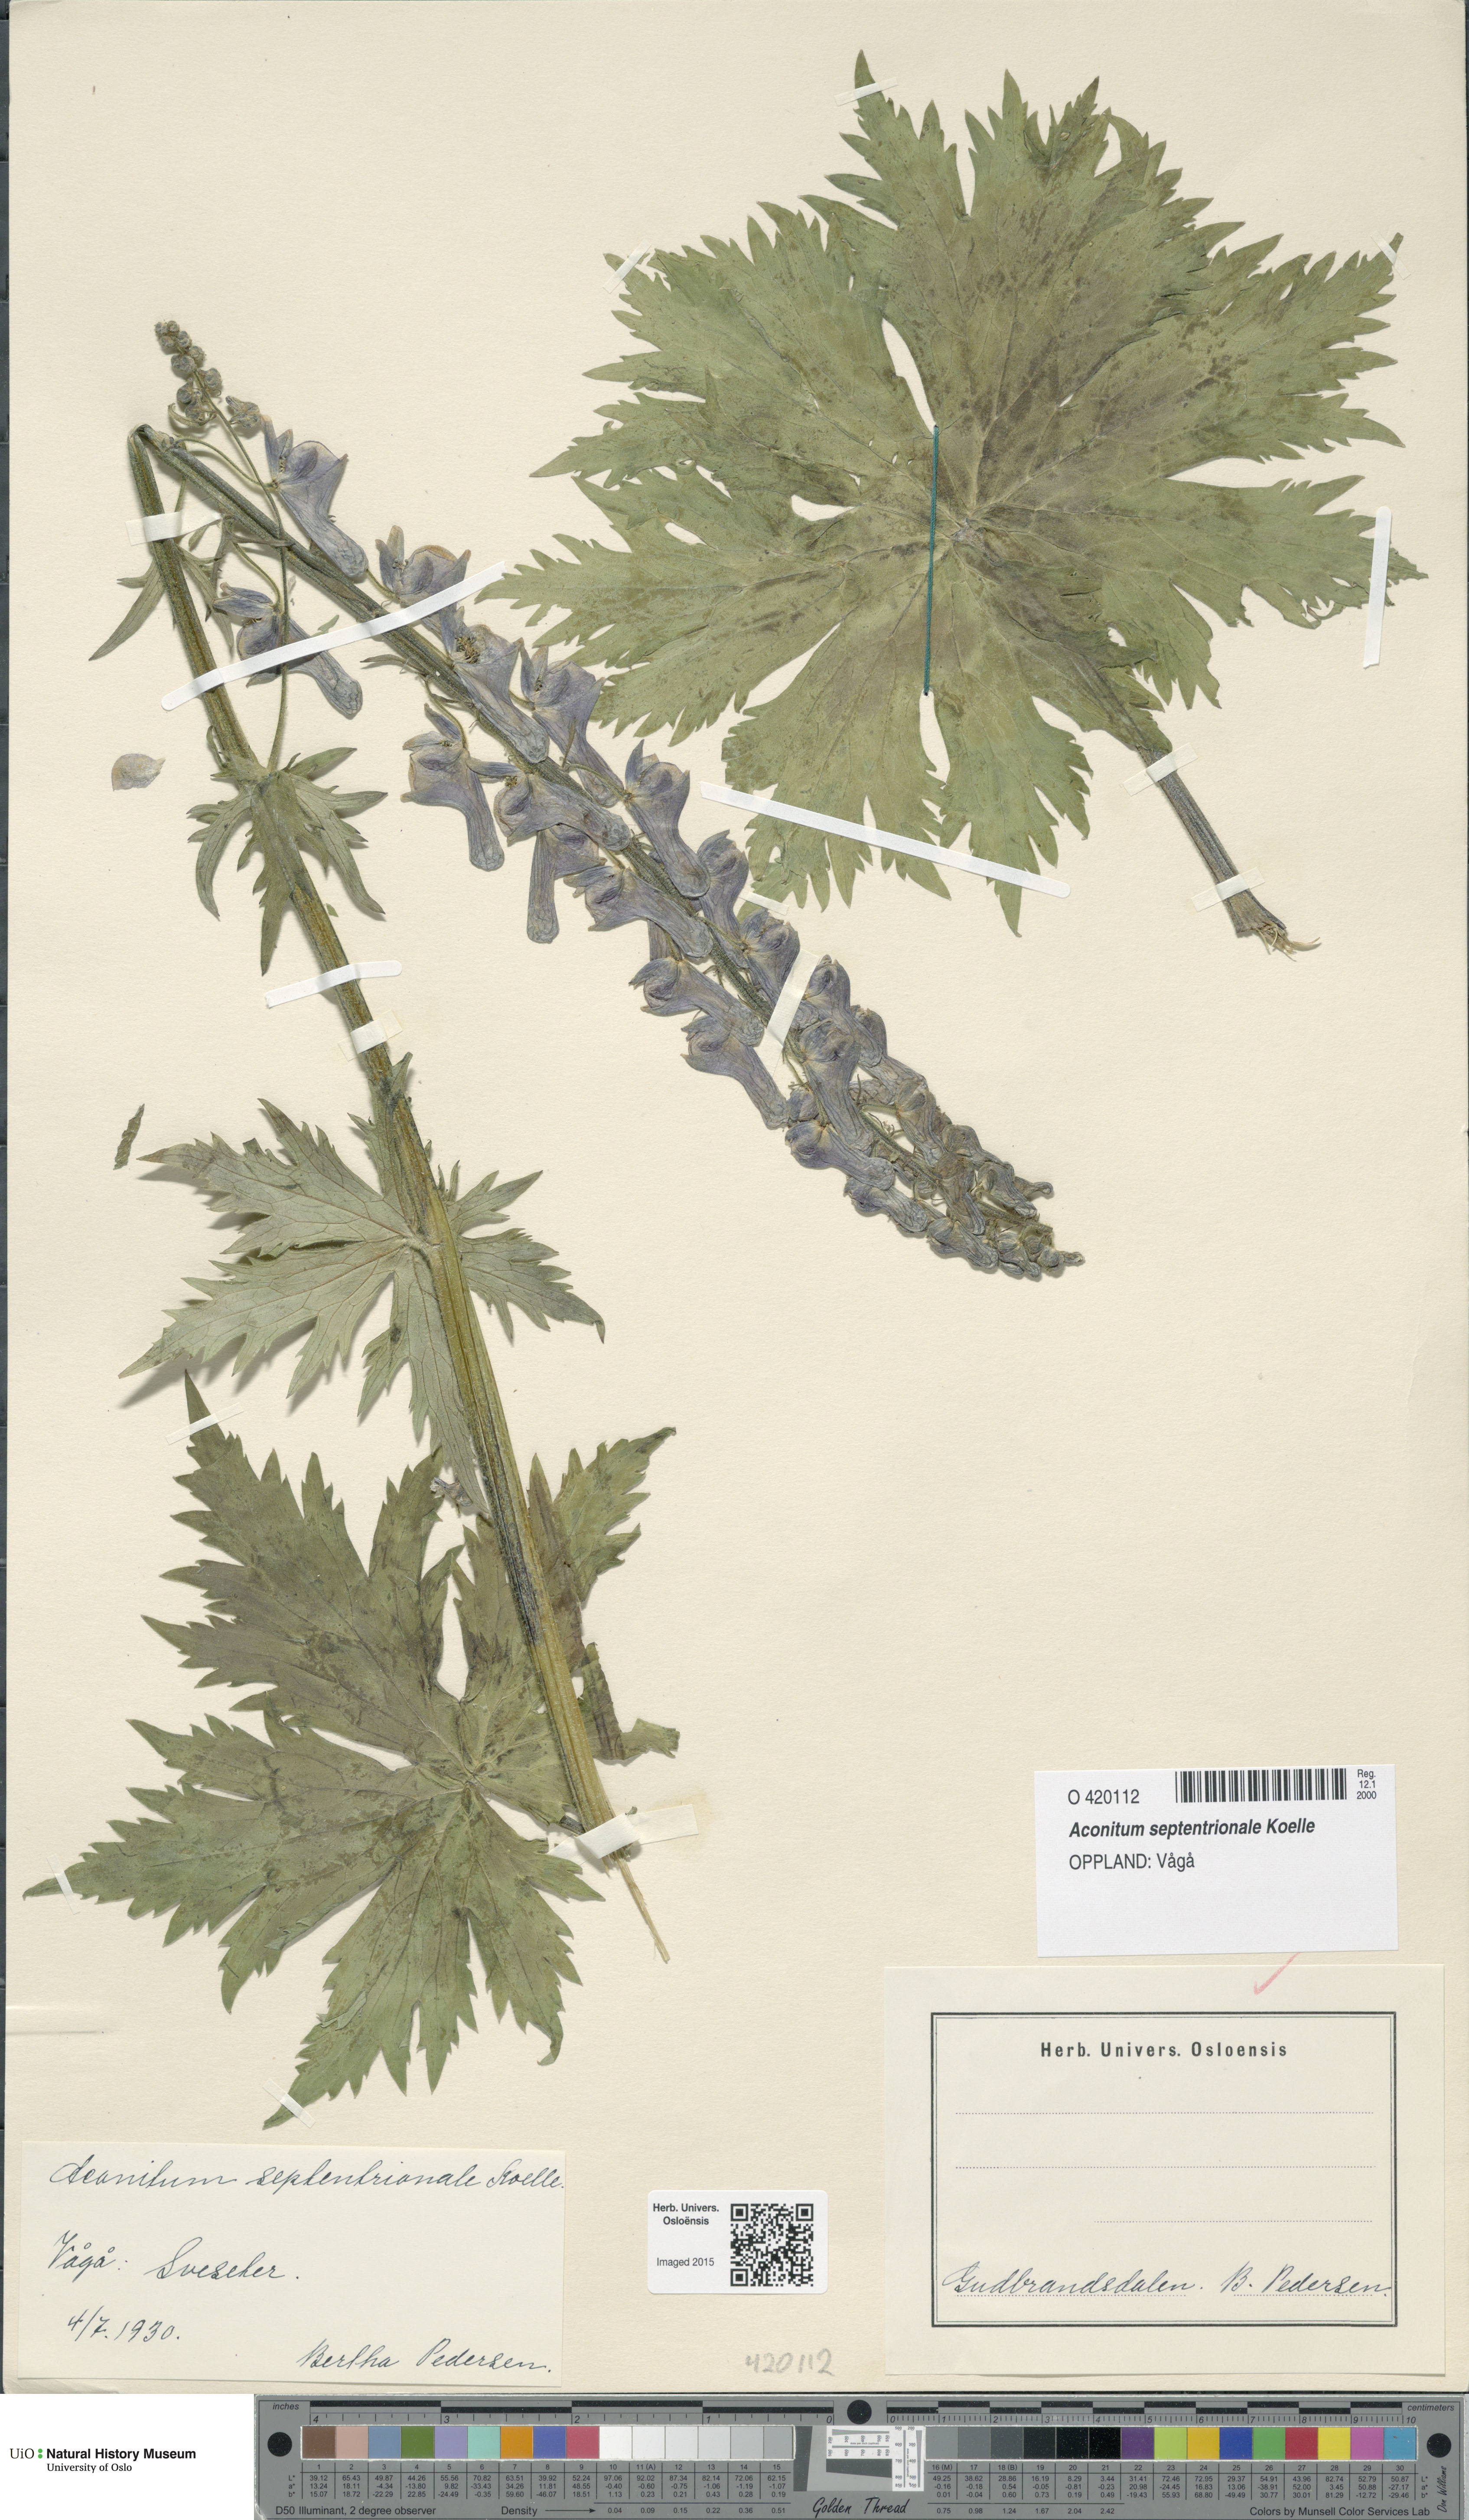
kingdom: Plantae
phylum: Tracheophyta
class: Magnoliopsida
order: Ranunculales
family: Ranunculaceae
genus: Aconitum
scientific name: Aconitum septentrionale
